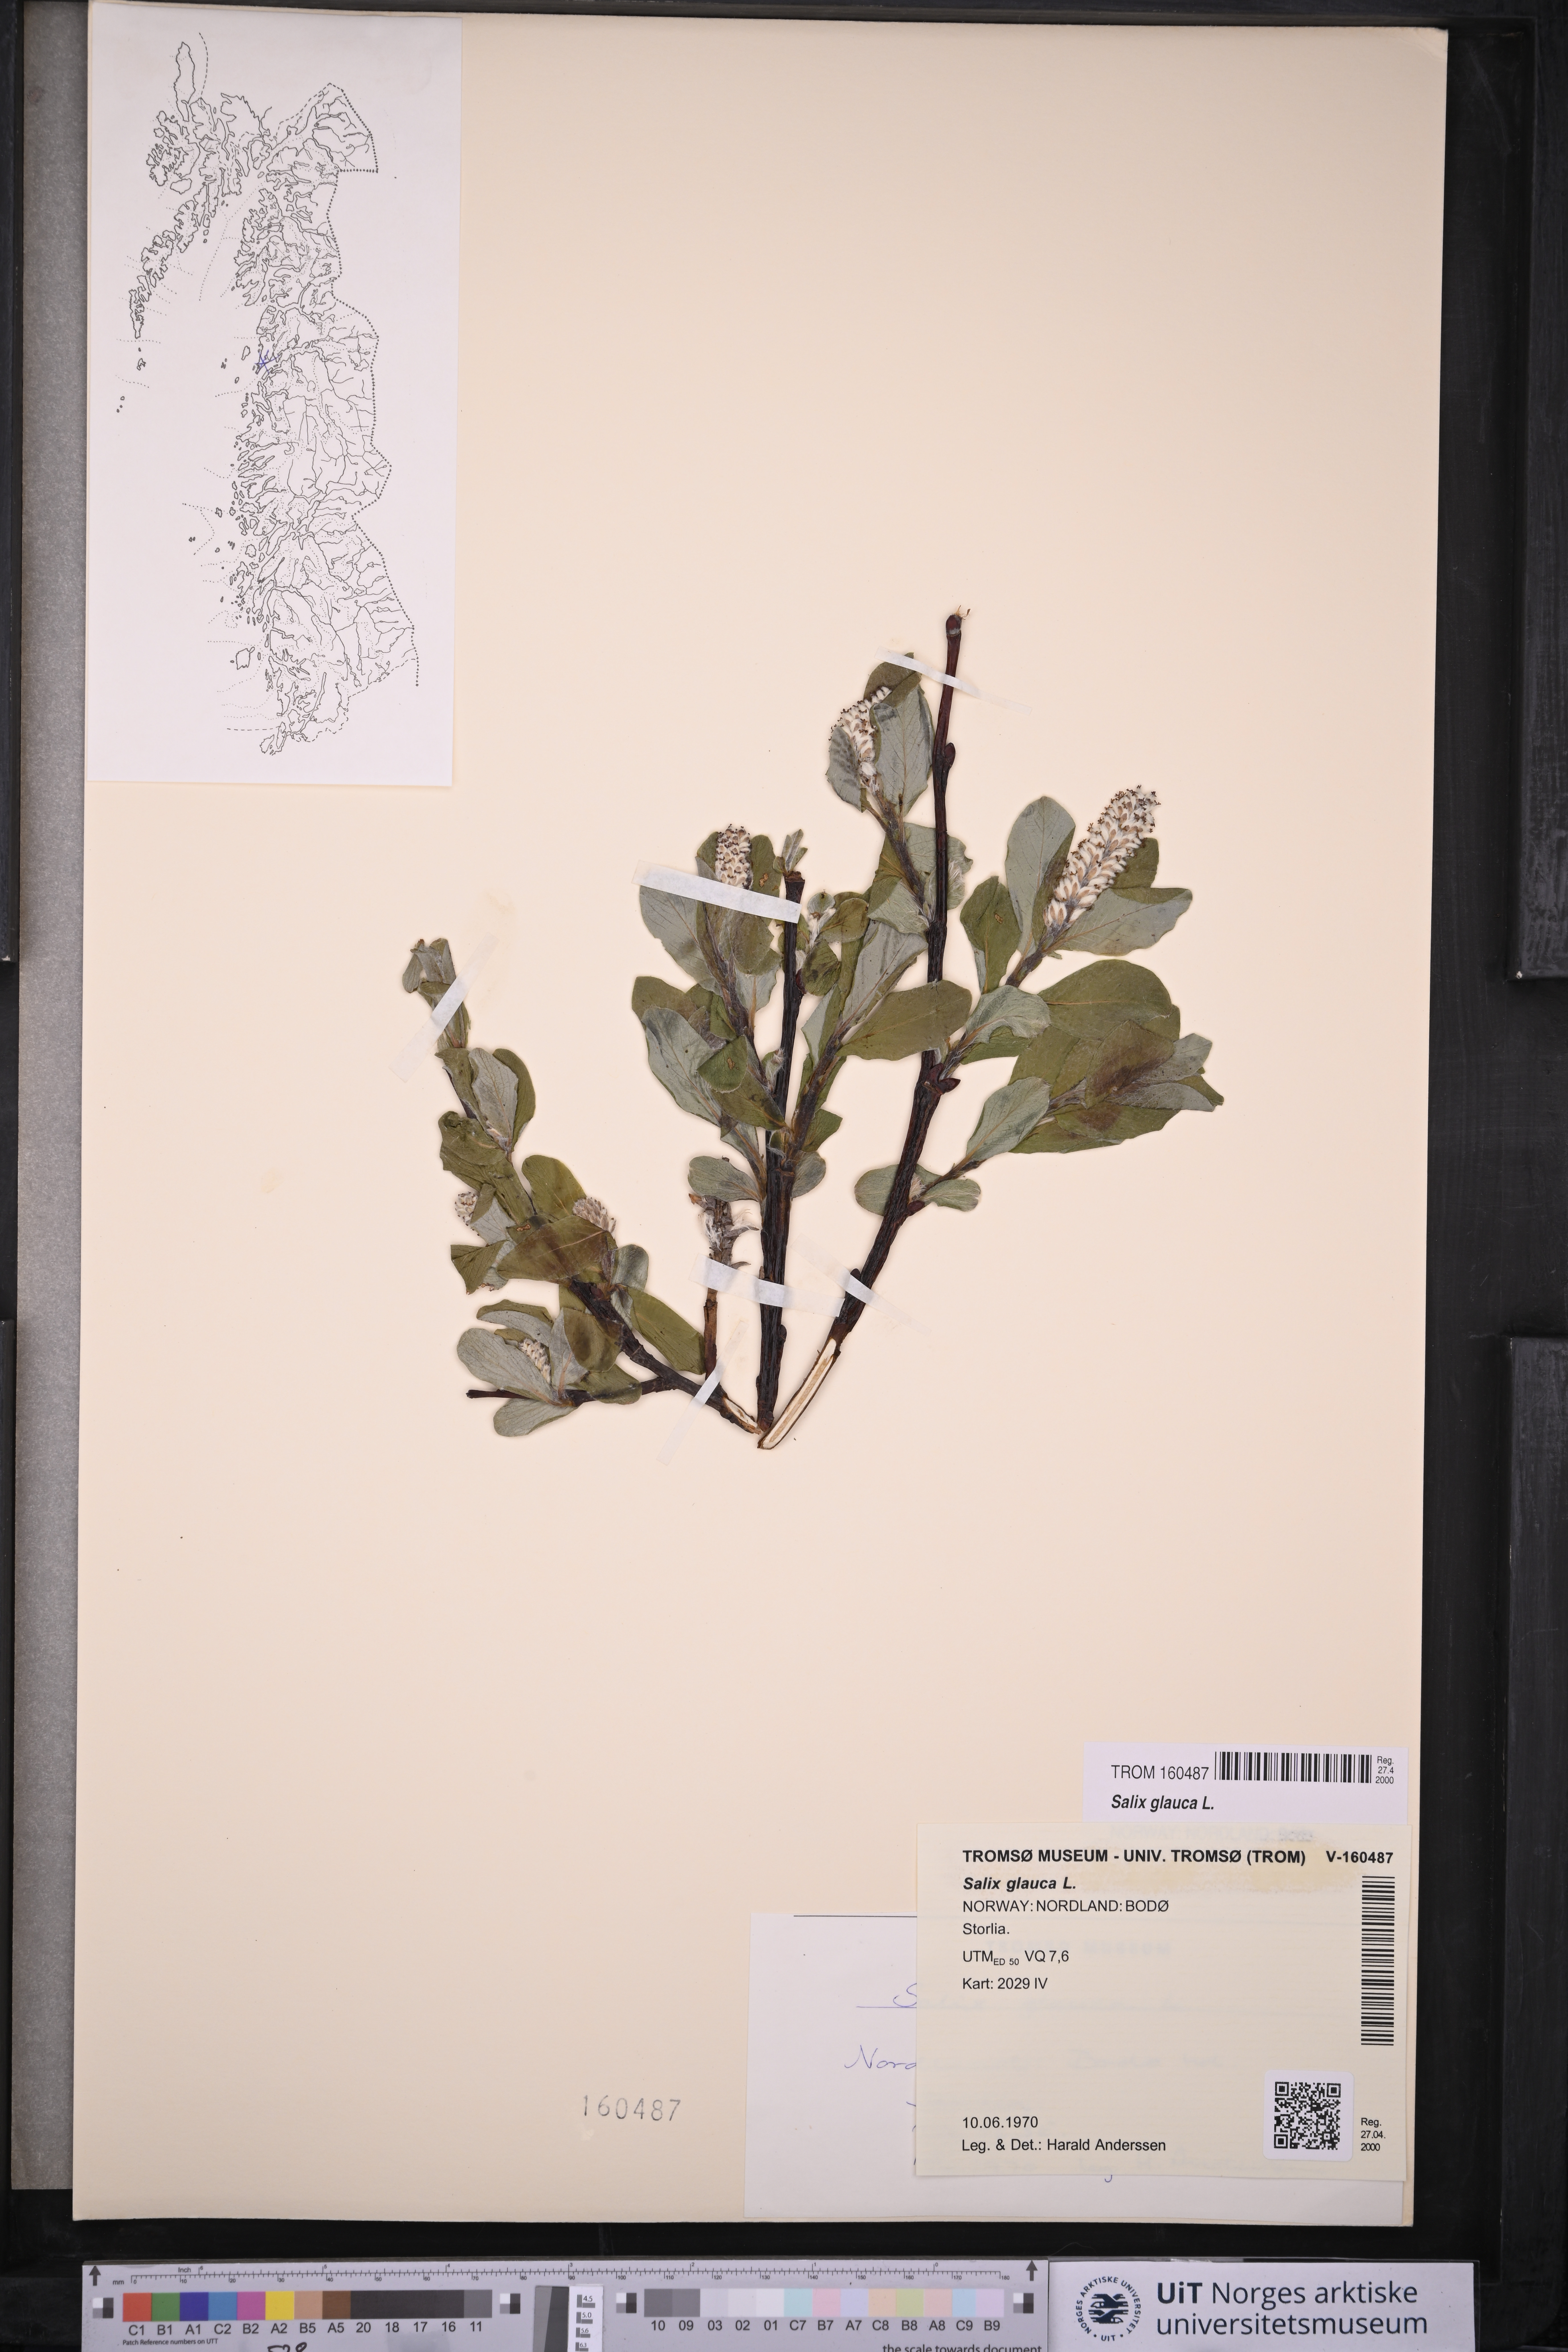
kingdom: Plantae
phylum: Tracheophyta
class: Magnoliopsida
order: Malpighiales
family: Salicaceae
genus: Salix
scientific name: Salix glauca
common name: Glaucous willow
